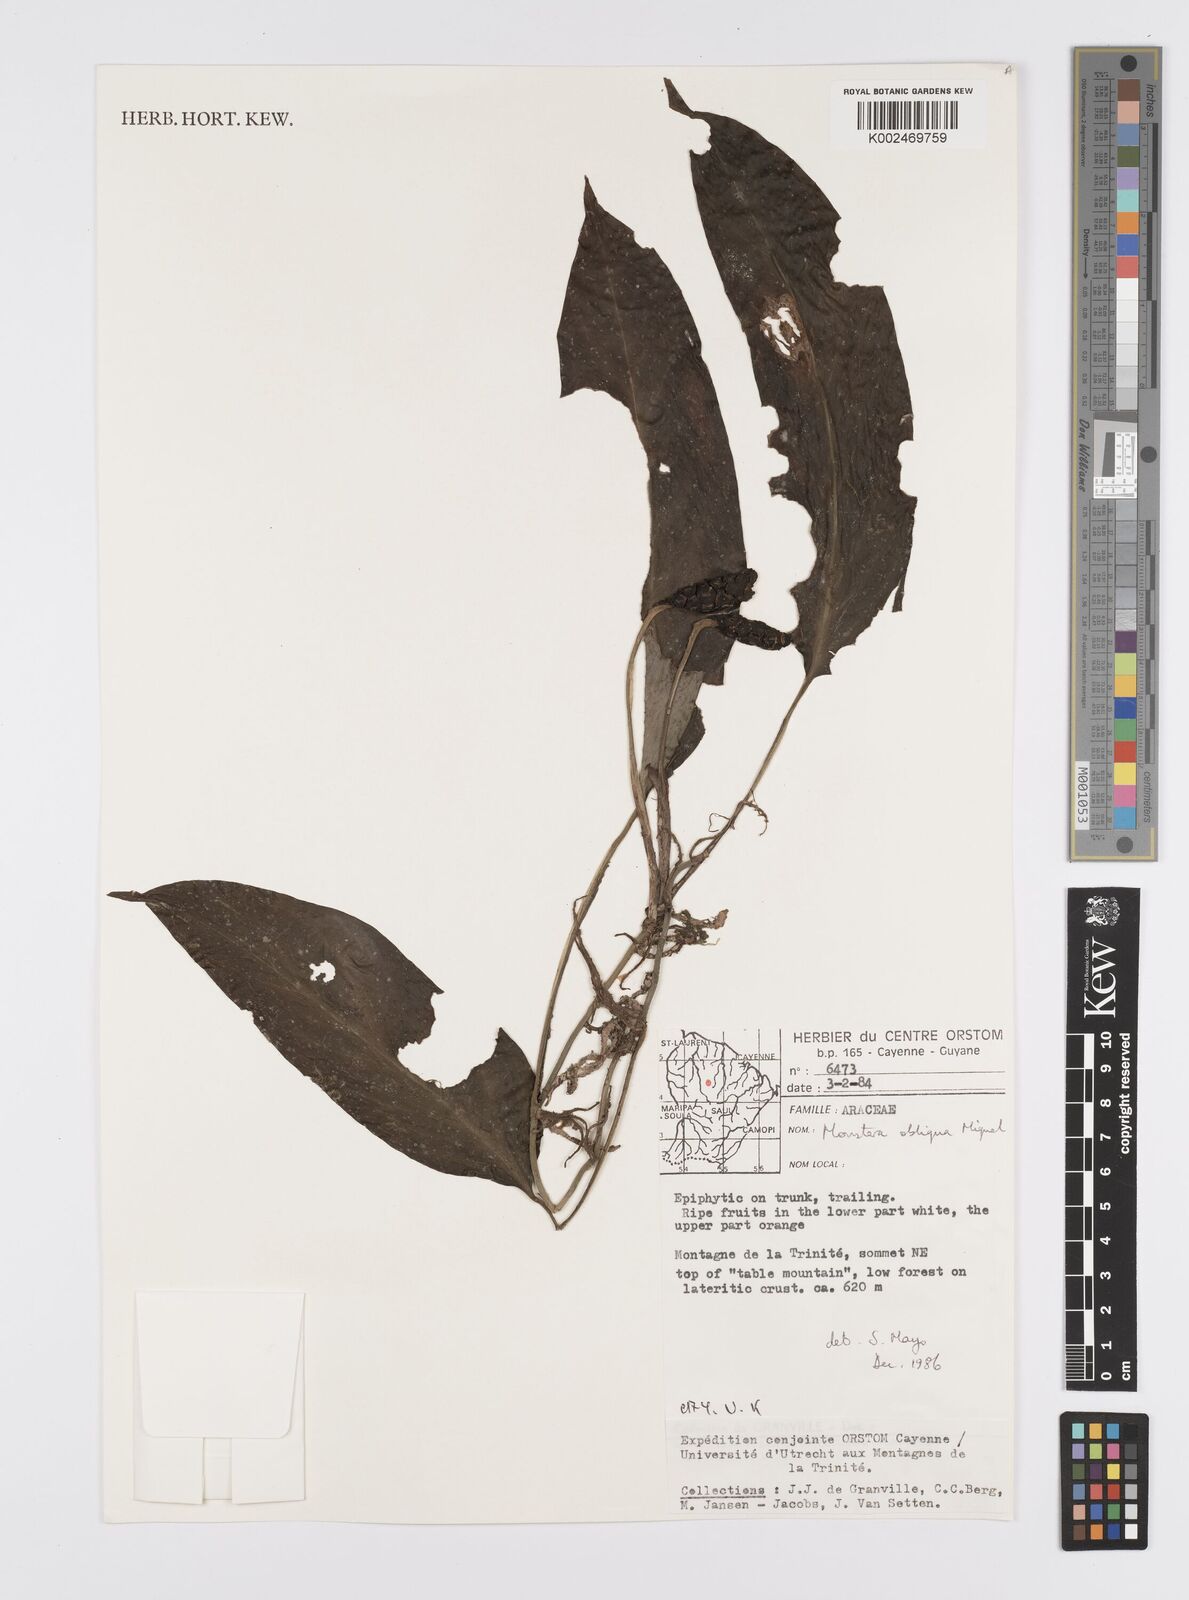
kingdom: Plantae
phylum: Tracheophyta
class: Liliopsida
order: Alismatales
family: Araceae
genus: Monstera
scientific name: Monstera obliqua
